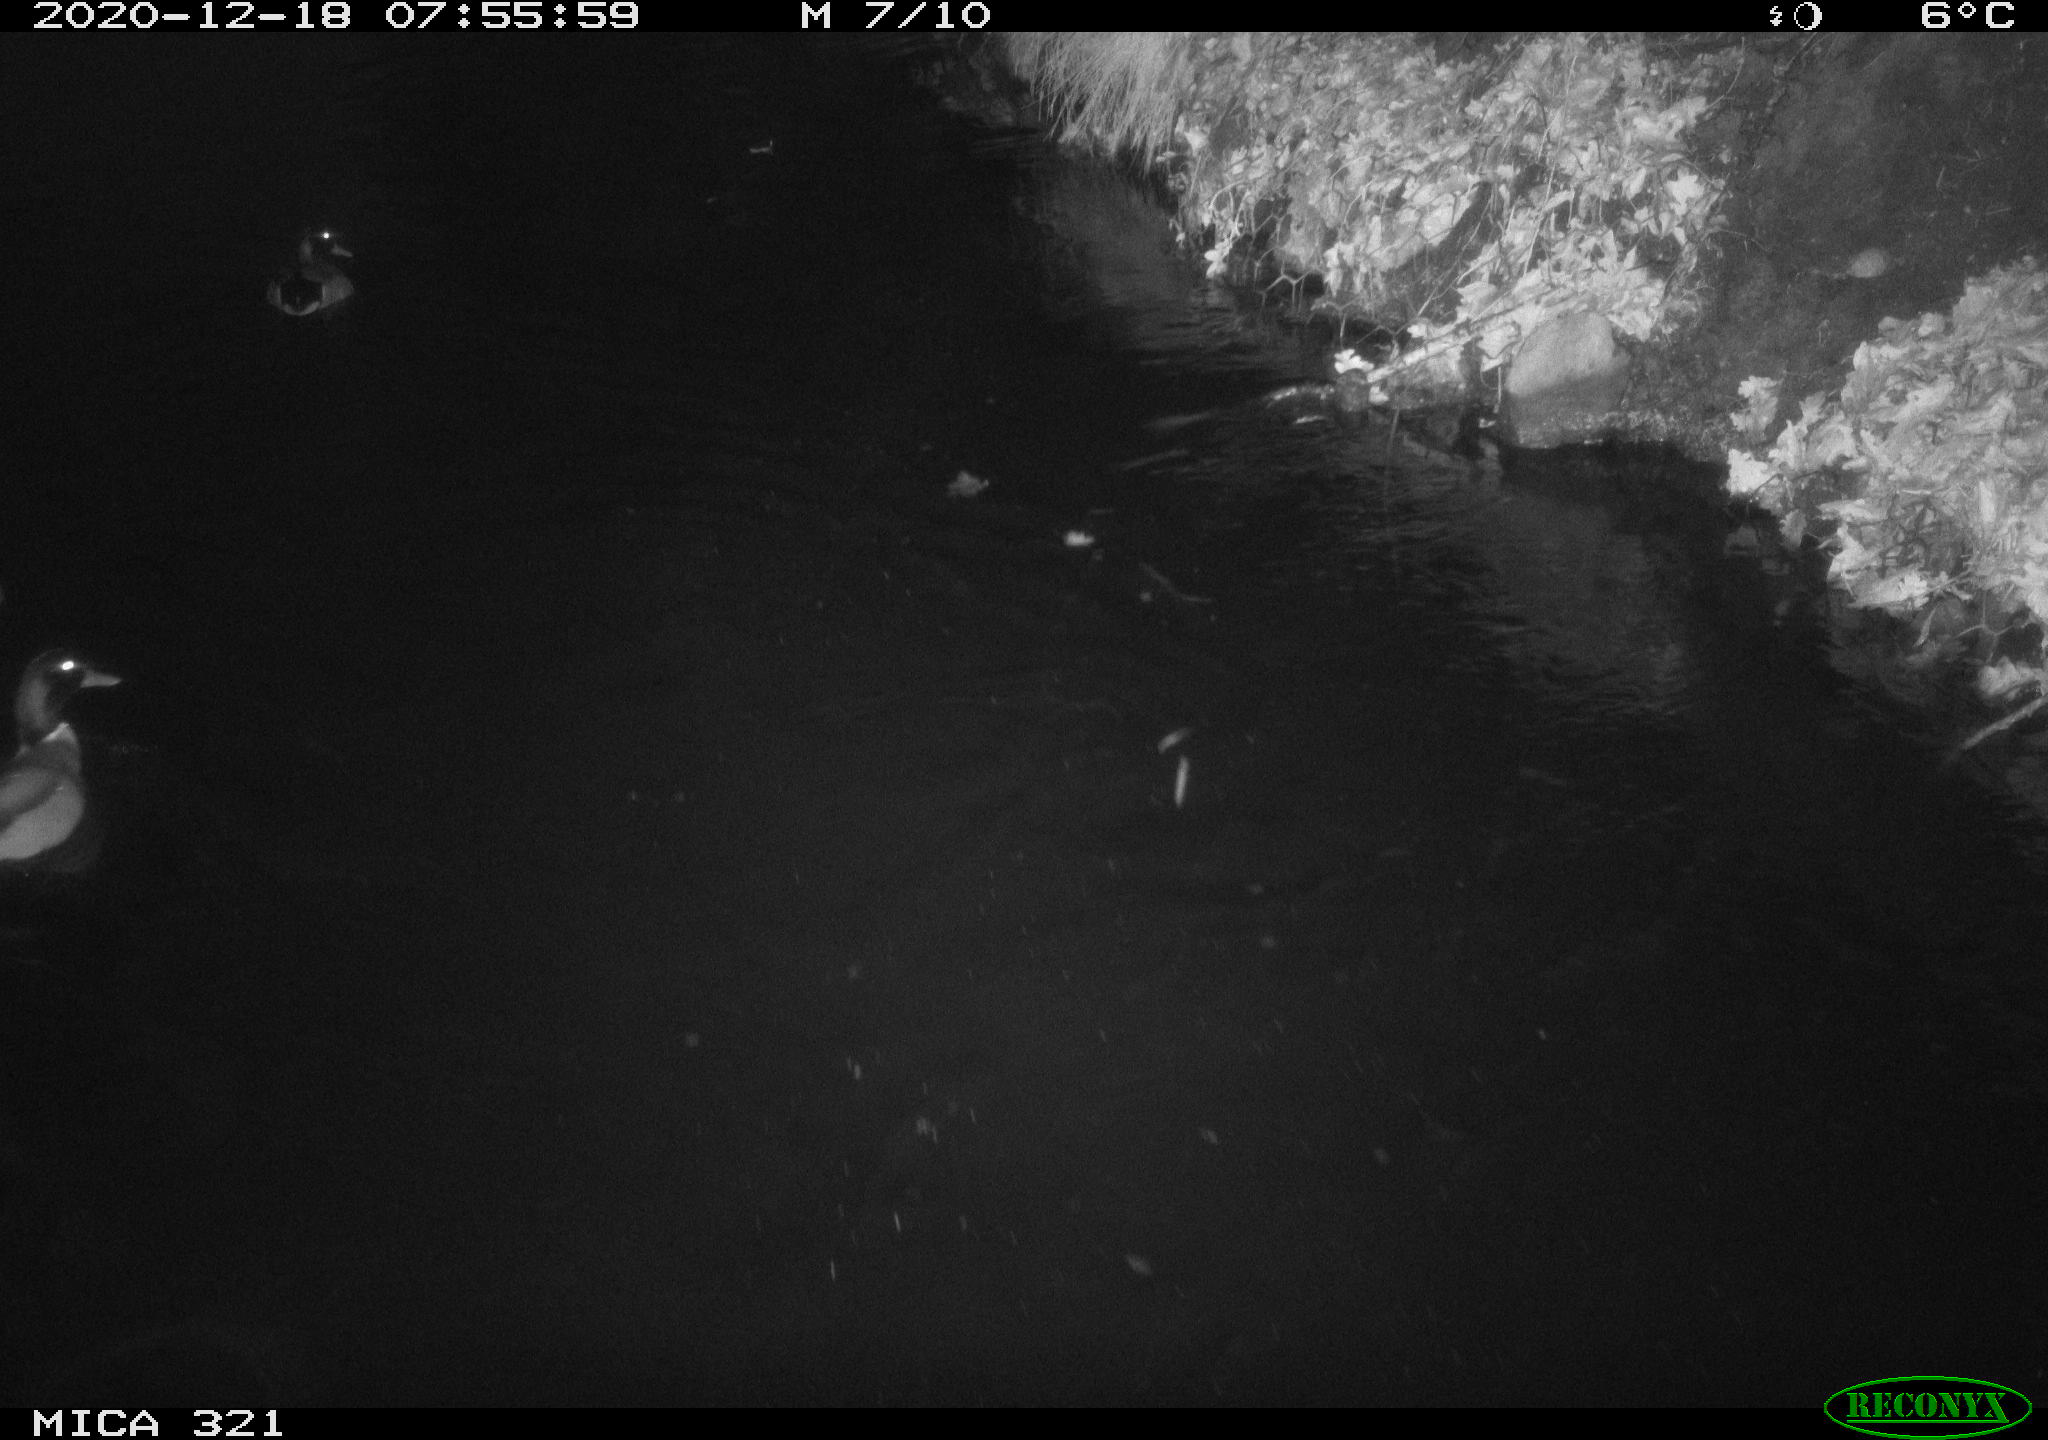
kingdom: Animalia
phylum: Chordata
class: Aves
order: Anseriformes
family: Anatidae
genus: Anas
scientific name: Anas platyrhynchos
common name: Mallard
